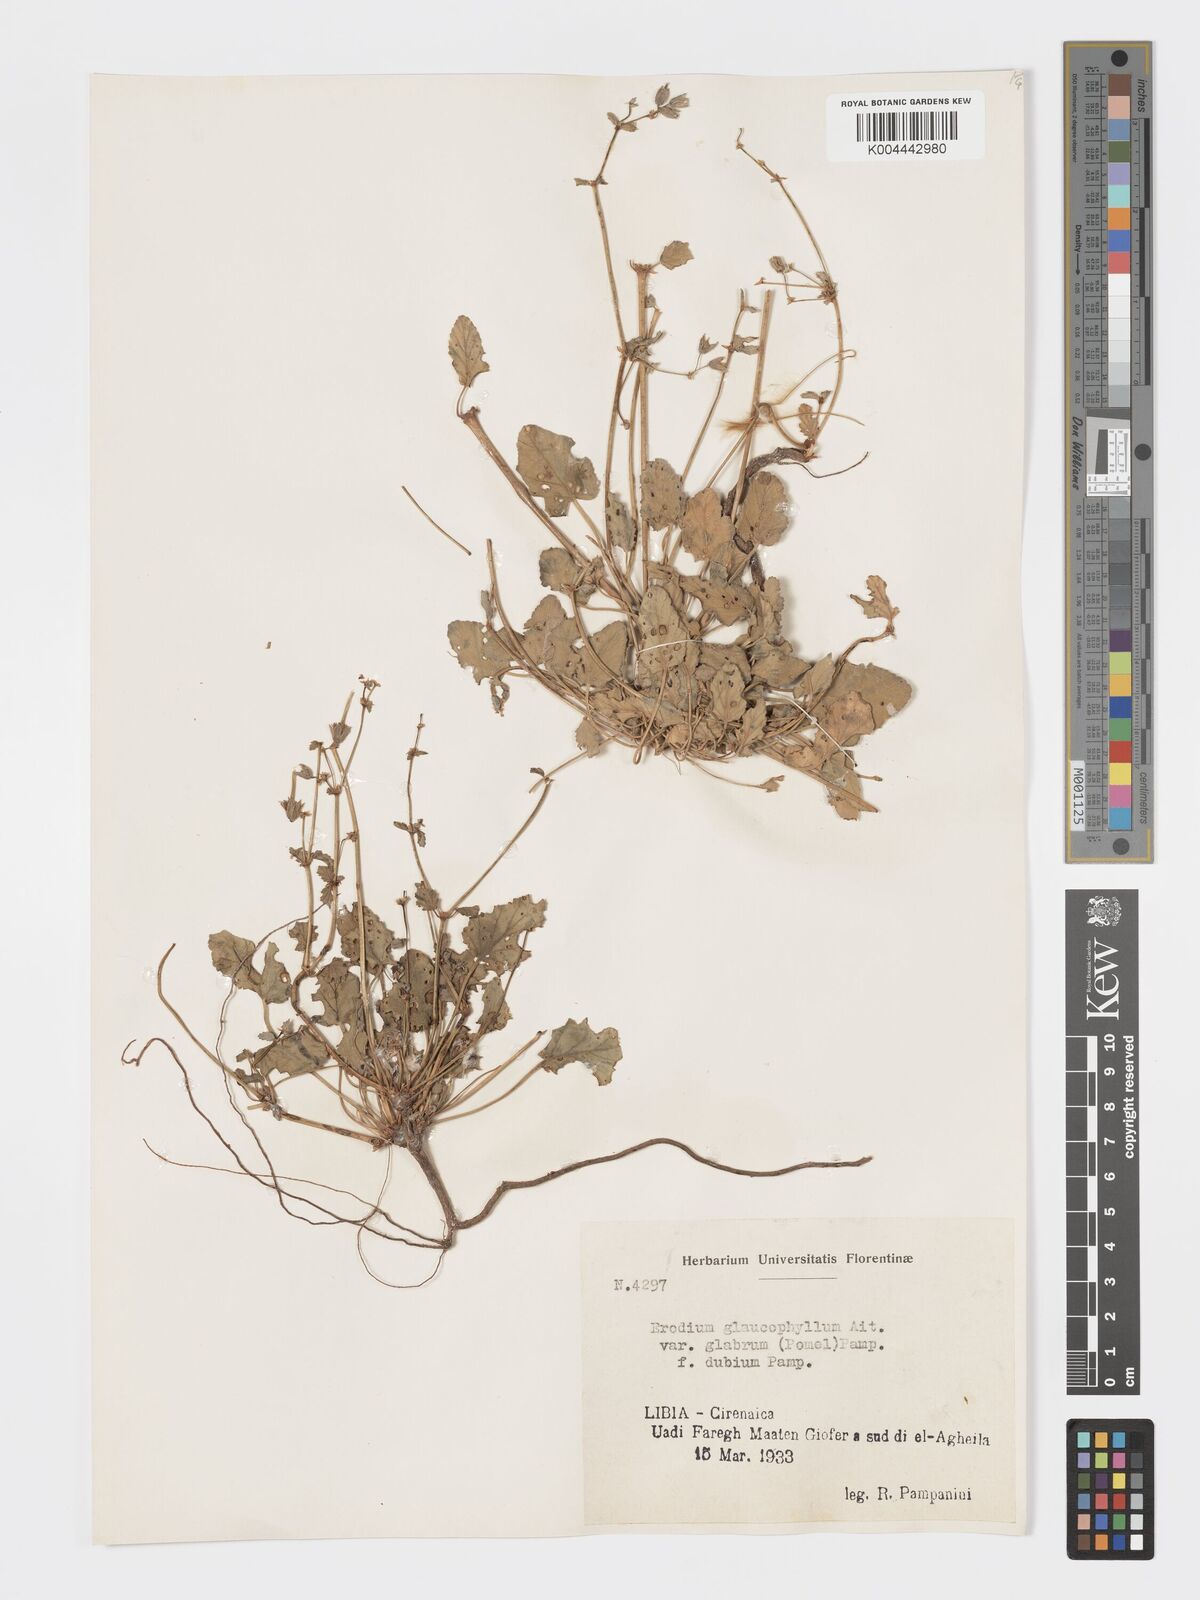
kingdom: Plantae
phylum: Tracheophyta
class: Magnoliopsida
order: Geraniales
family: Geraniaceae
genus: Erodium
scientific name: Erodium glaucophyllum
